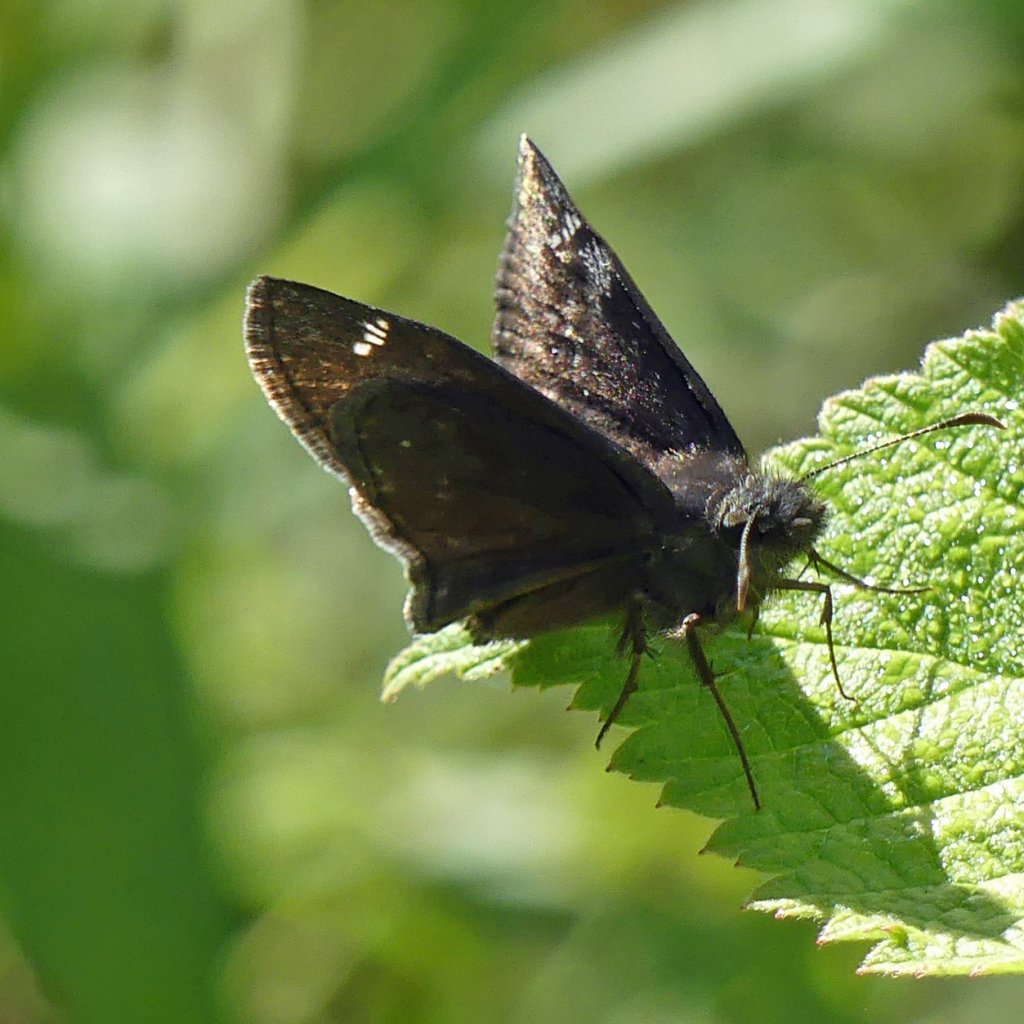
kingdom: Animalia
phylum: Arthropoda
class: Insecta
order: Lepidoptera
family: Hesperiidae
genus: Gesta
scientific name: Gesta
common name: Wild Indigo Duskywing
